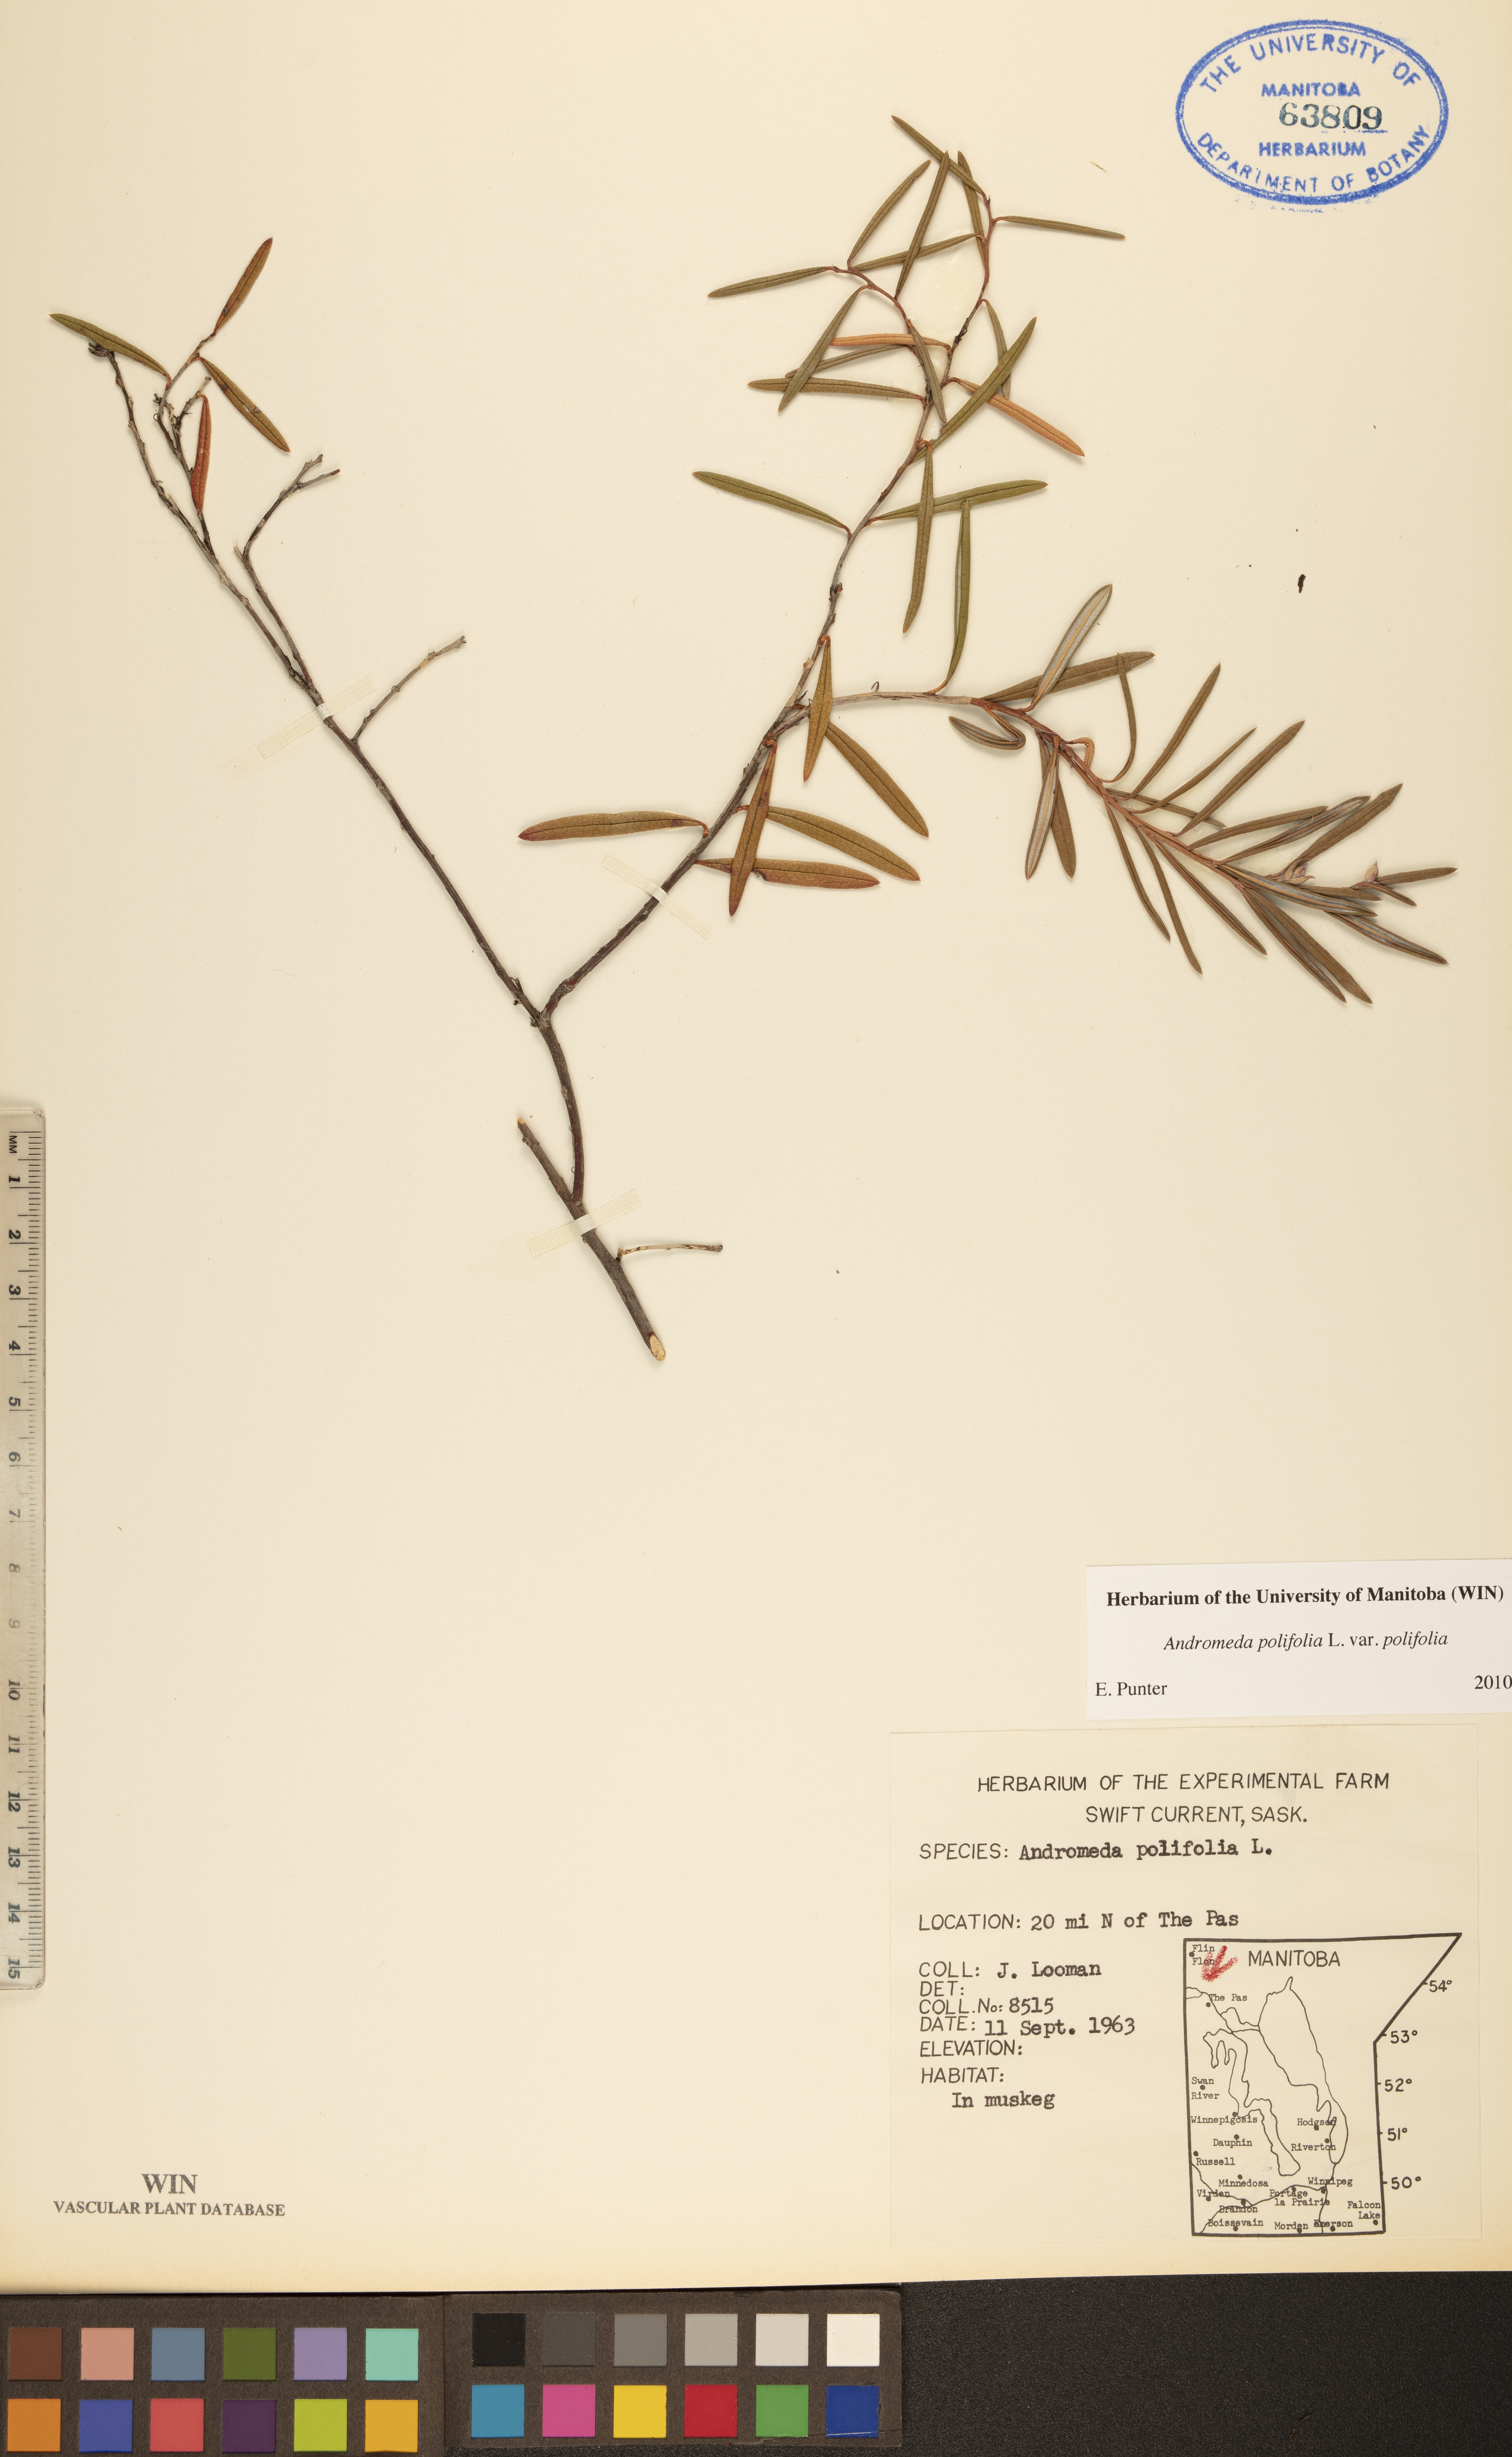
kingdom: Plantae
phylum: Tracheophyta
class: Magnoliopsida
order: Ericales
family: Ericaceae
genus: Andromeda
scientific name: Andromeda polifolia
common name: Bog-rosemary
